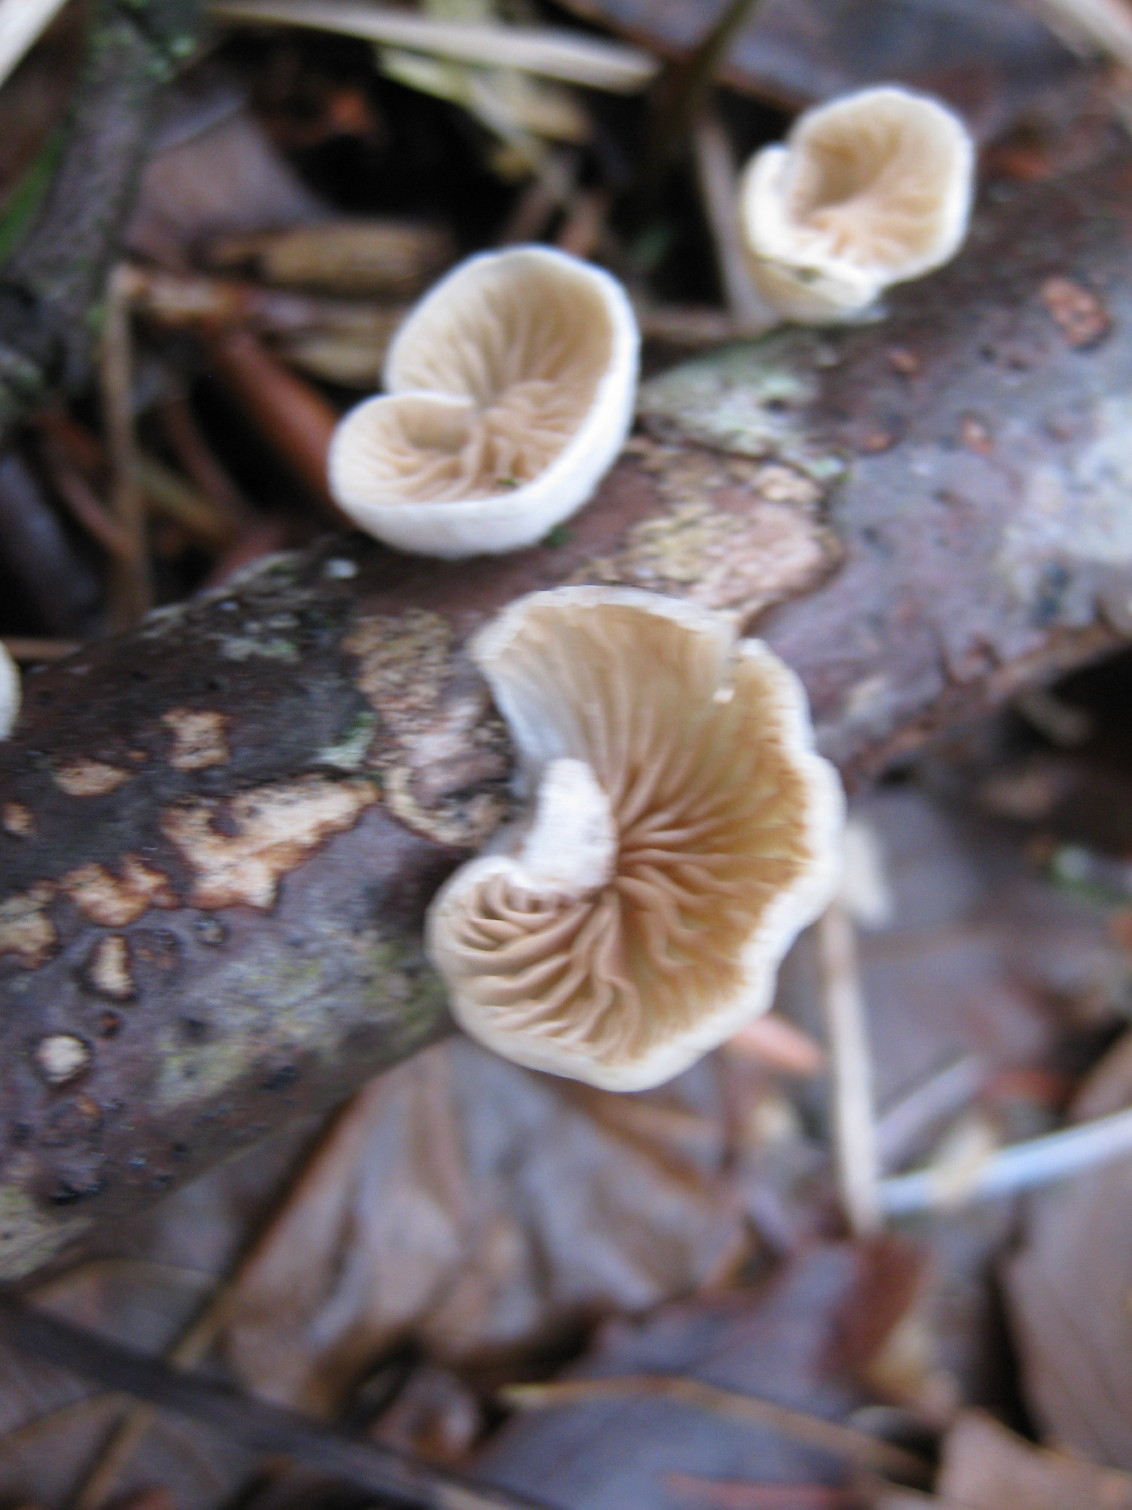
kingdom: Fungi
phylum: Basidiomycota
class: Agaricomycetes
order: Agaricales
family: Crepidotaceae
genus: Crepidotus
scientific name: Crepidotus cesatii
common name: almindelig muslingesvamp
